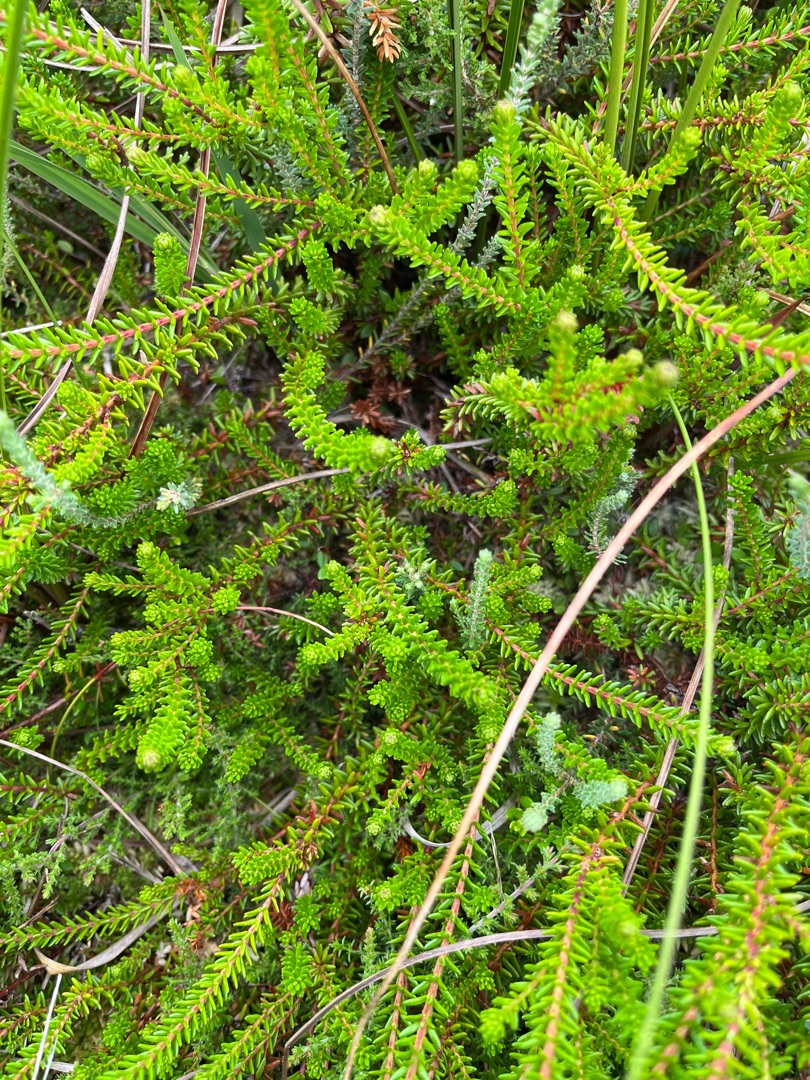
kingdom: Plantae
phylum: Tracheophyta
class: Magnoliopsida
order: Ericales
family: Ericaceae
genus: Empetrum
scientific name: Empetrum nigrum
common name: Revling
